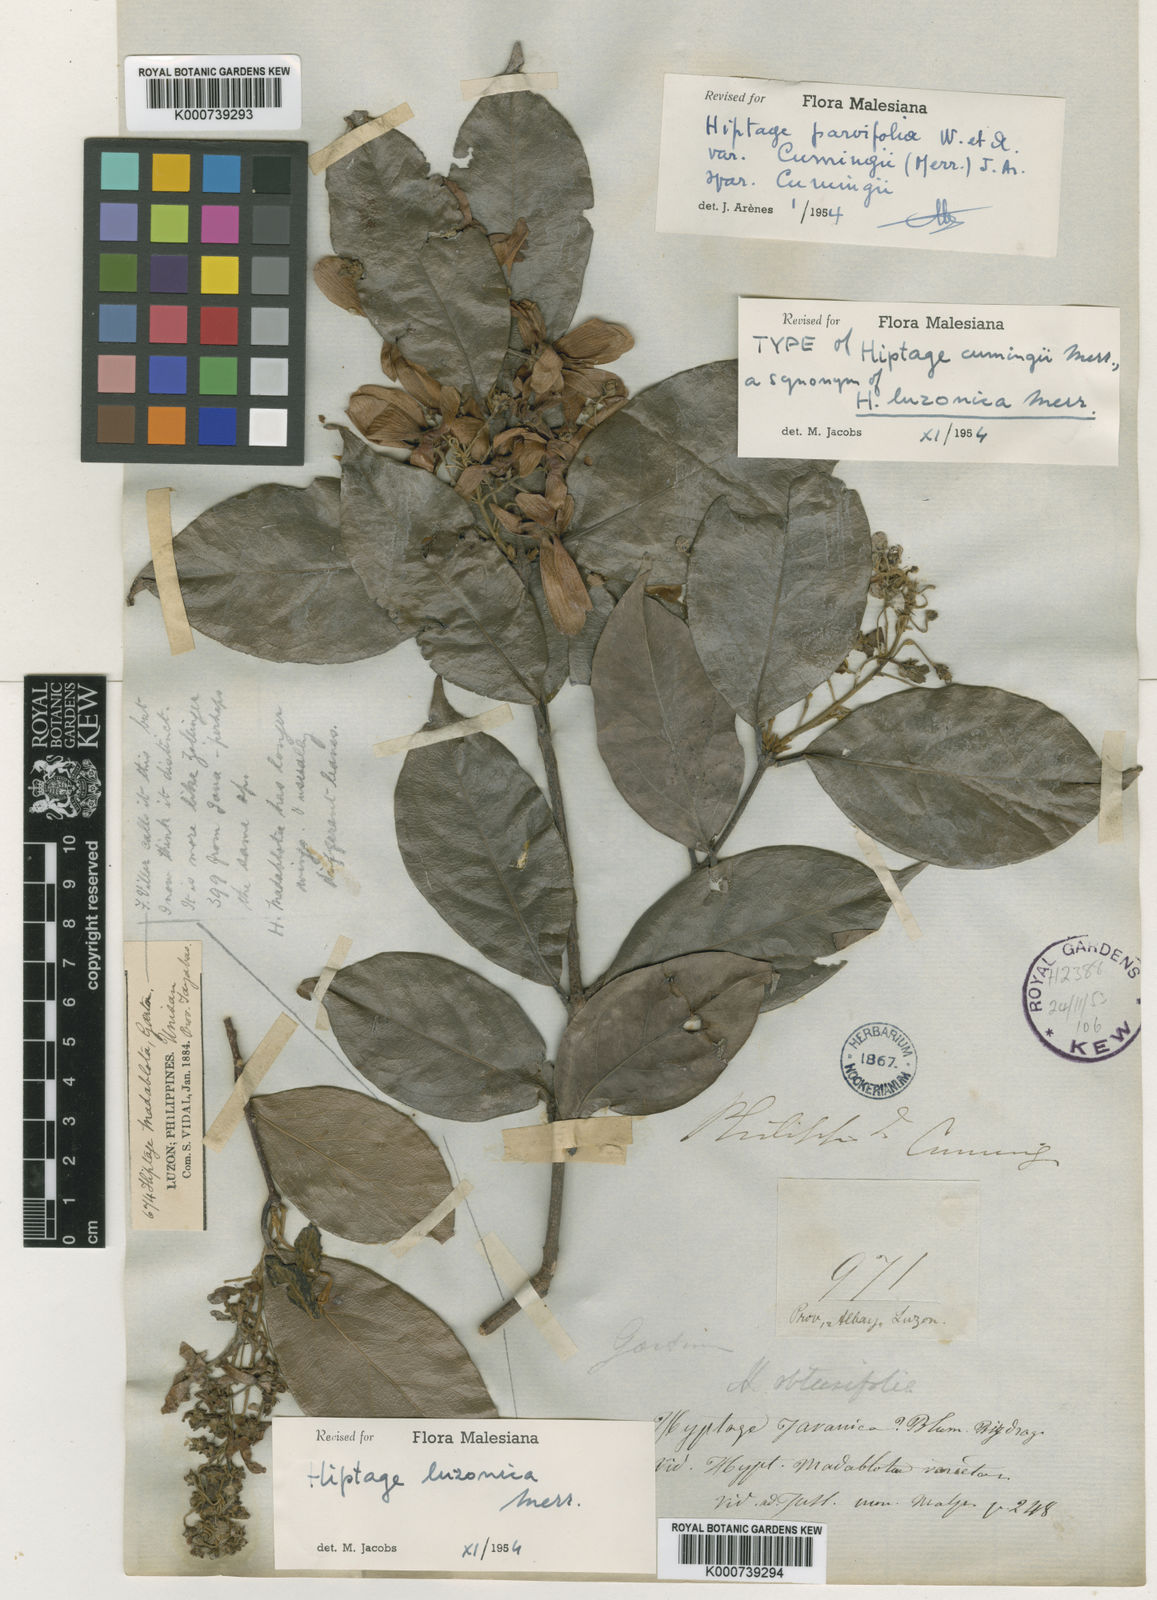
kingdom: Plantae
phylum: Tracheophyta
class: Magnoliopsida
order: Malpighiales
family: Malpighiaceae
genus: Hiptage
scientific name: Hiptage luzonica
